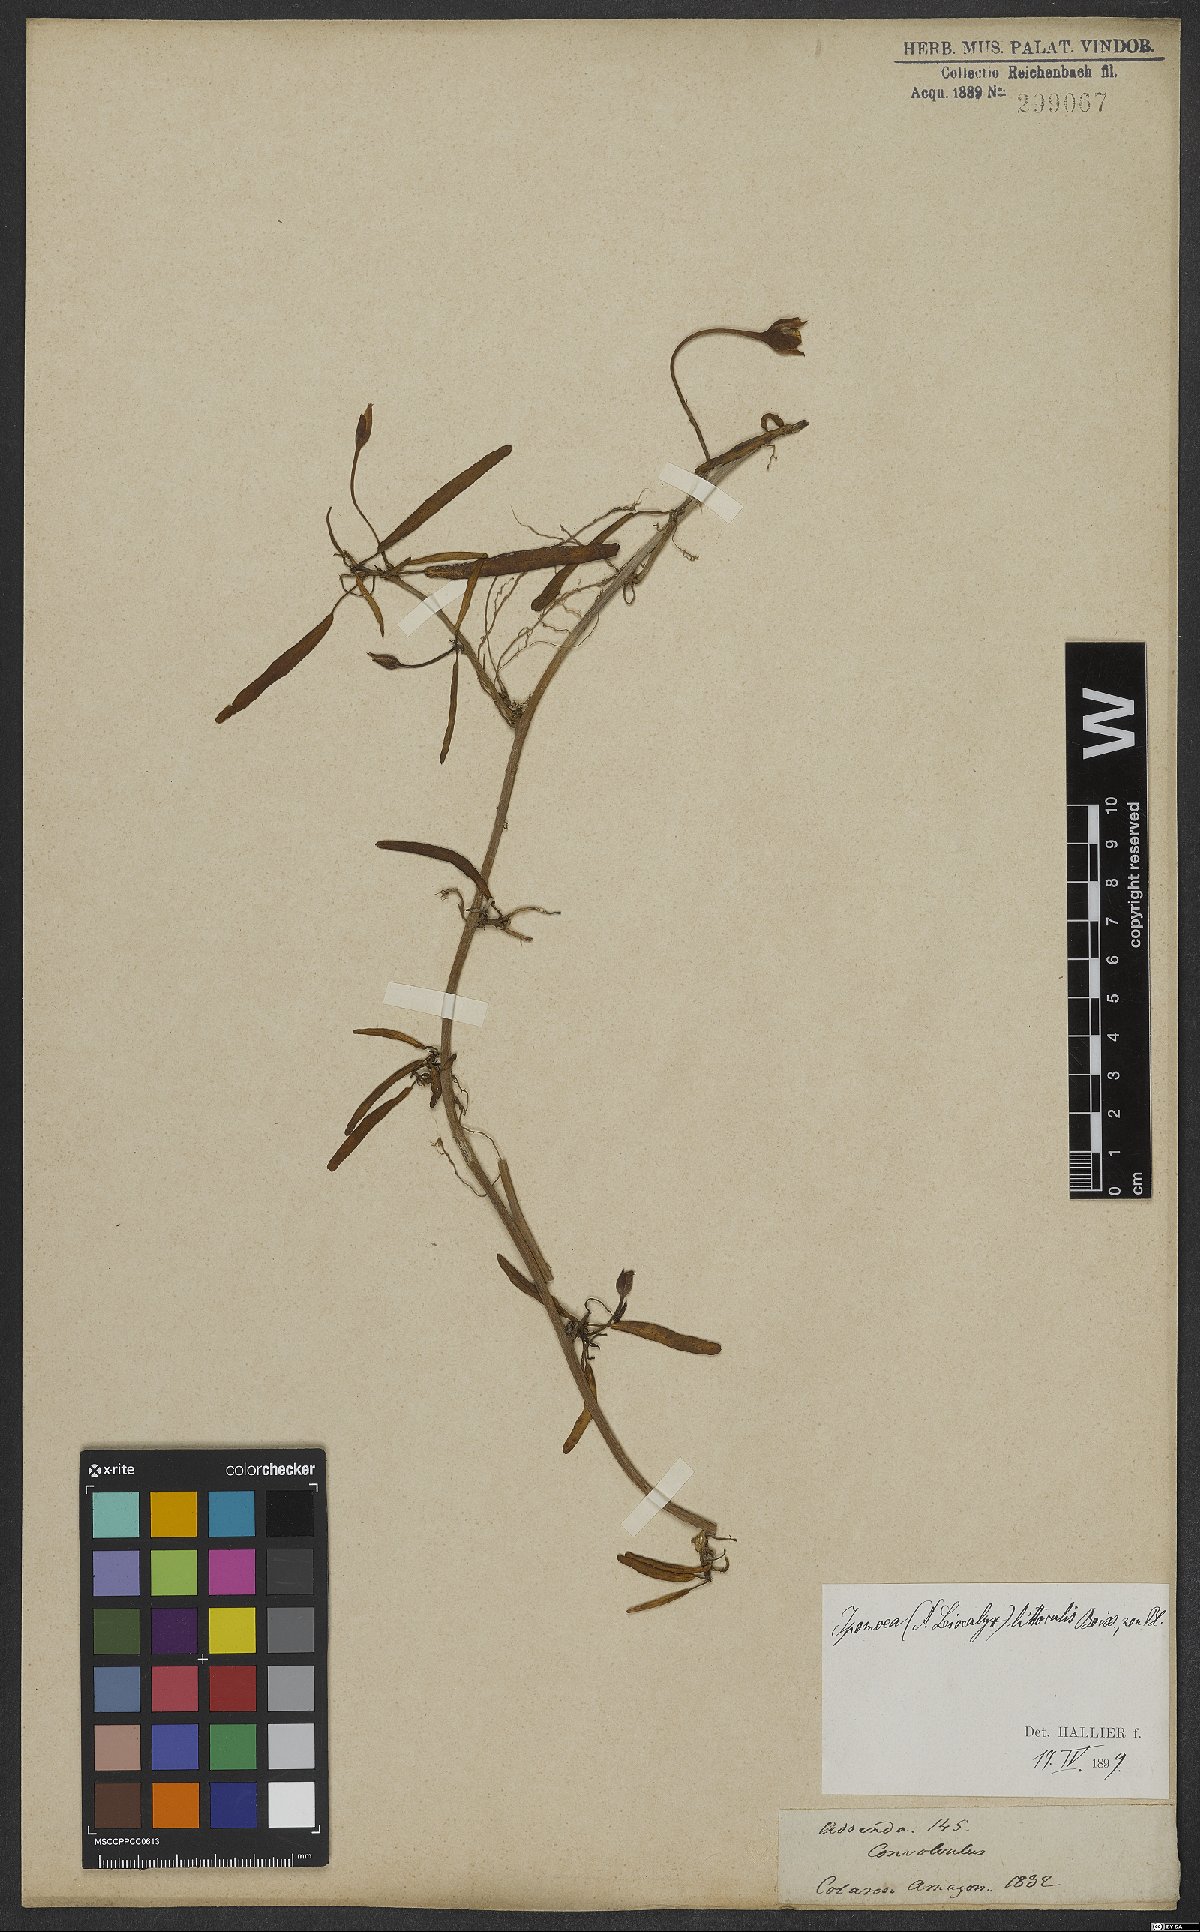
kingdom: Plantae
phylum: Tracheophyta
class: Magnoliopsida
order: Solanales
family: Convolvulaceae
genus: Ipomoea
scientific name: Ipomoea imperati
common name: Fiddle-leaf morning-glory
